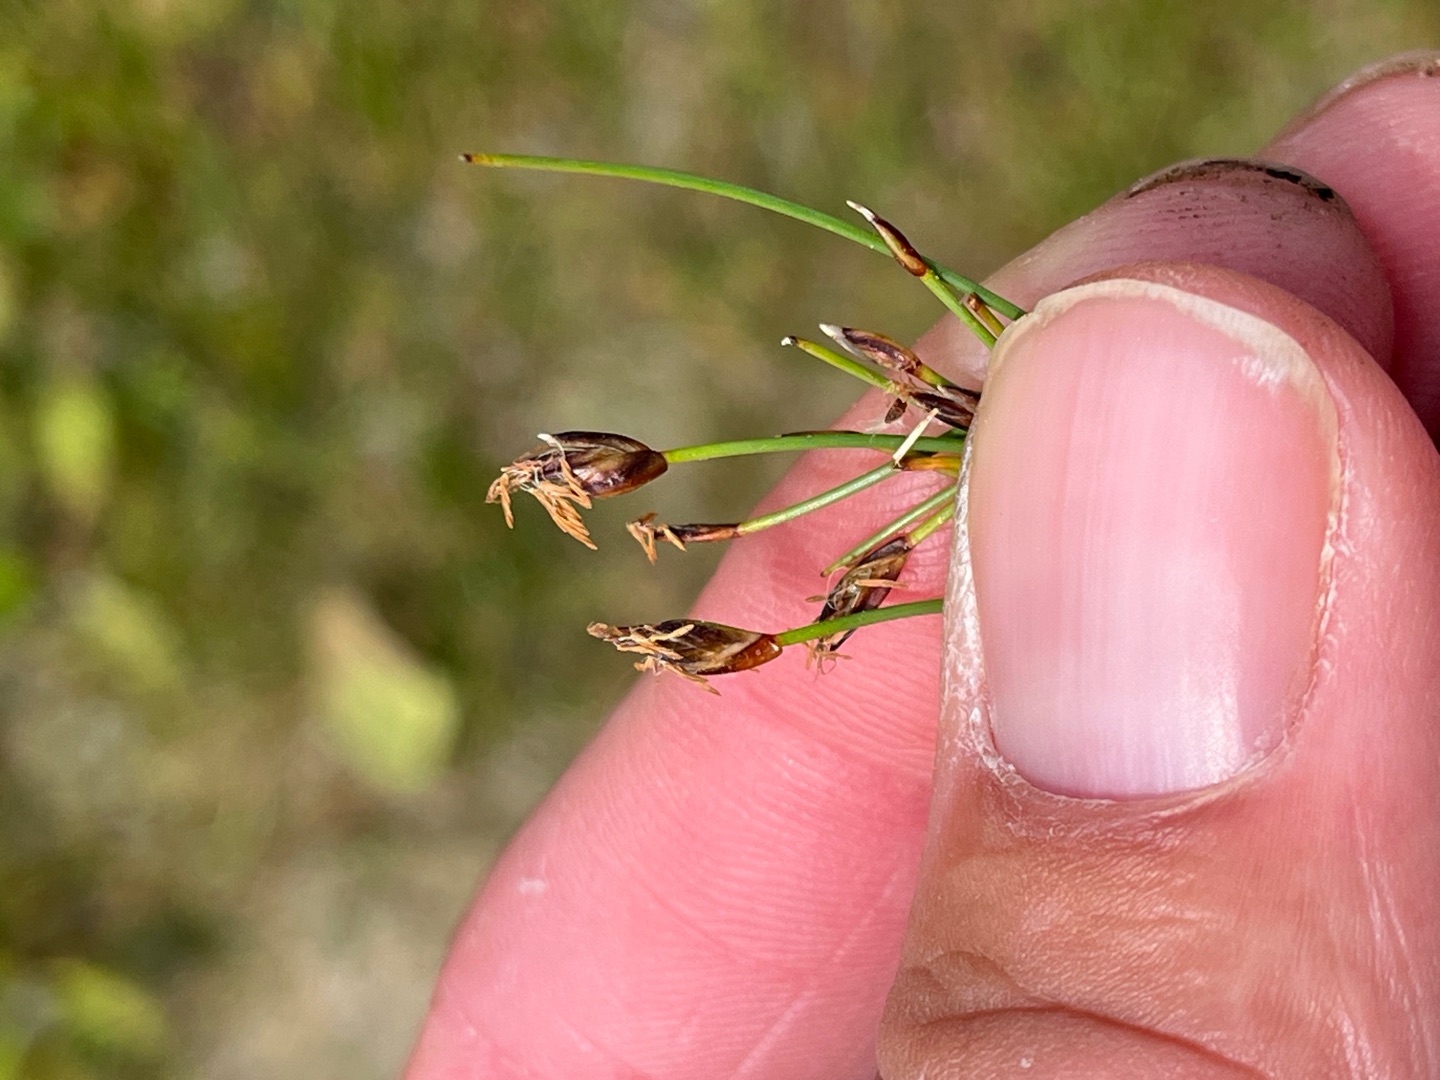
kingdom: Plantae
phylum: Tracheophyta
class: Liliopsida
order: Poales
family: Cyperaceae
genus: Eleocharis
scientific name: Eleocharis quinqueflora
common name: Fåblomstret kogleaks
